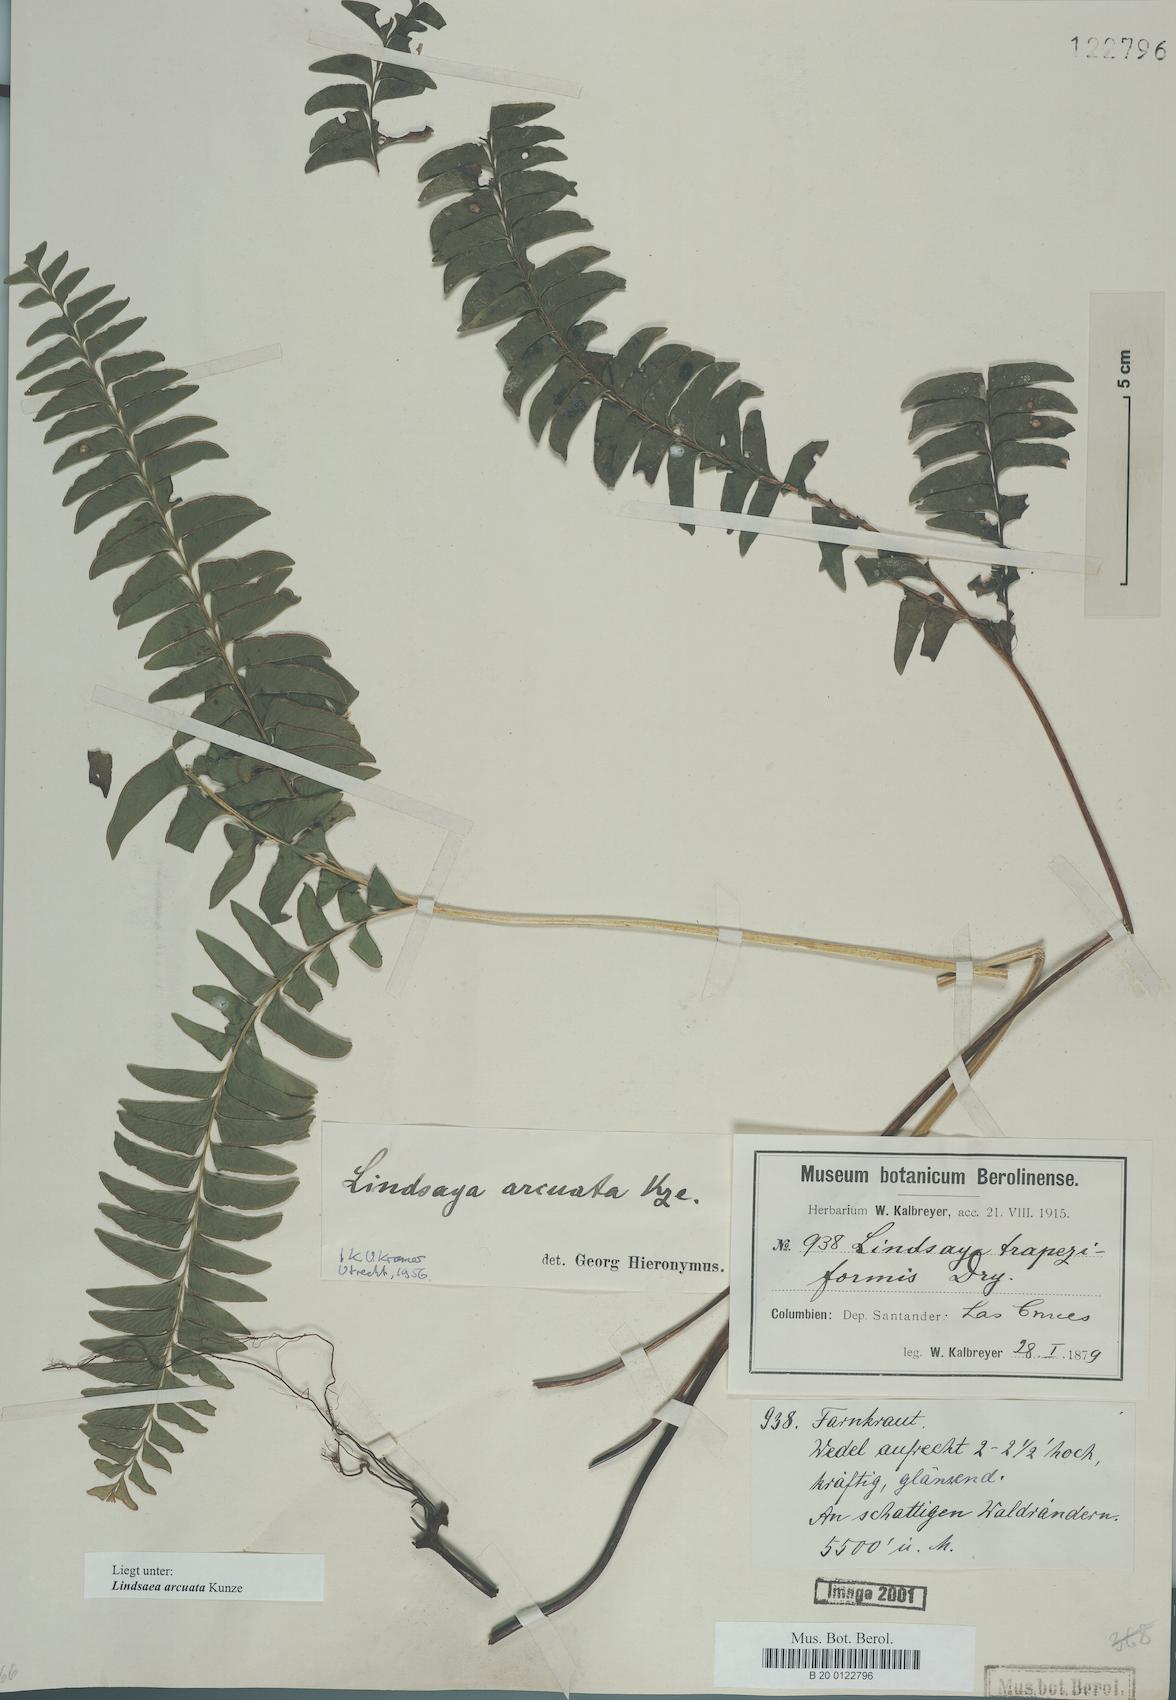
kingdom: Plantae
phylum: Tracheophyta
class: Polypodiopsida
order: Polypodiales
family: Lindsaeaceae
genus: Lindsaea
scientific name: Lindsaea arcuata
